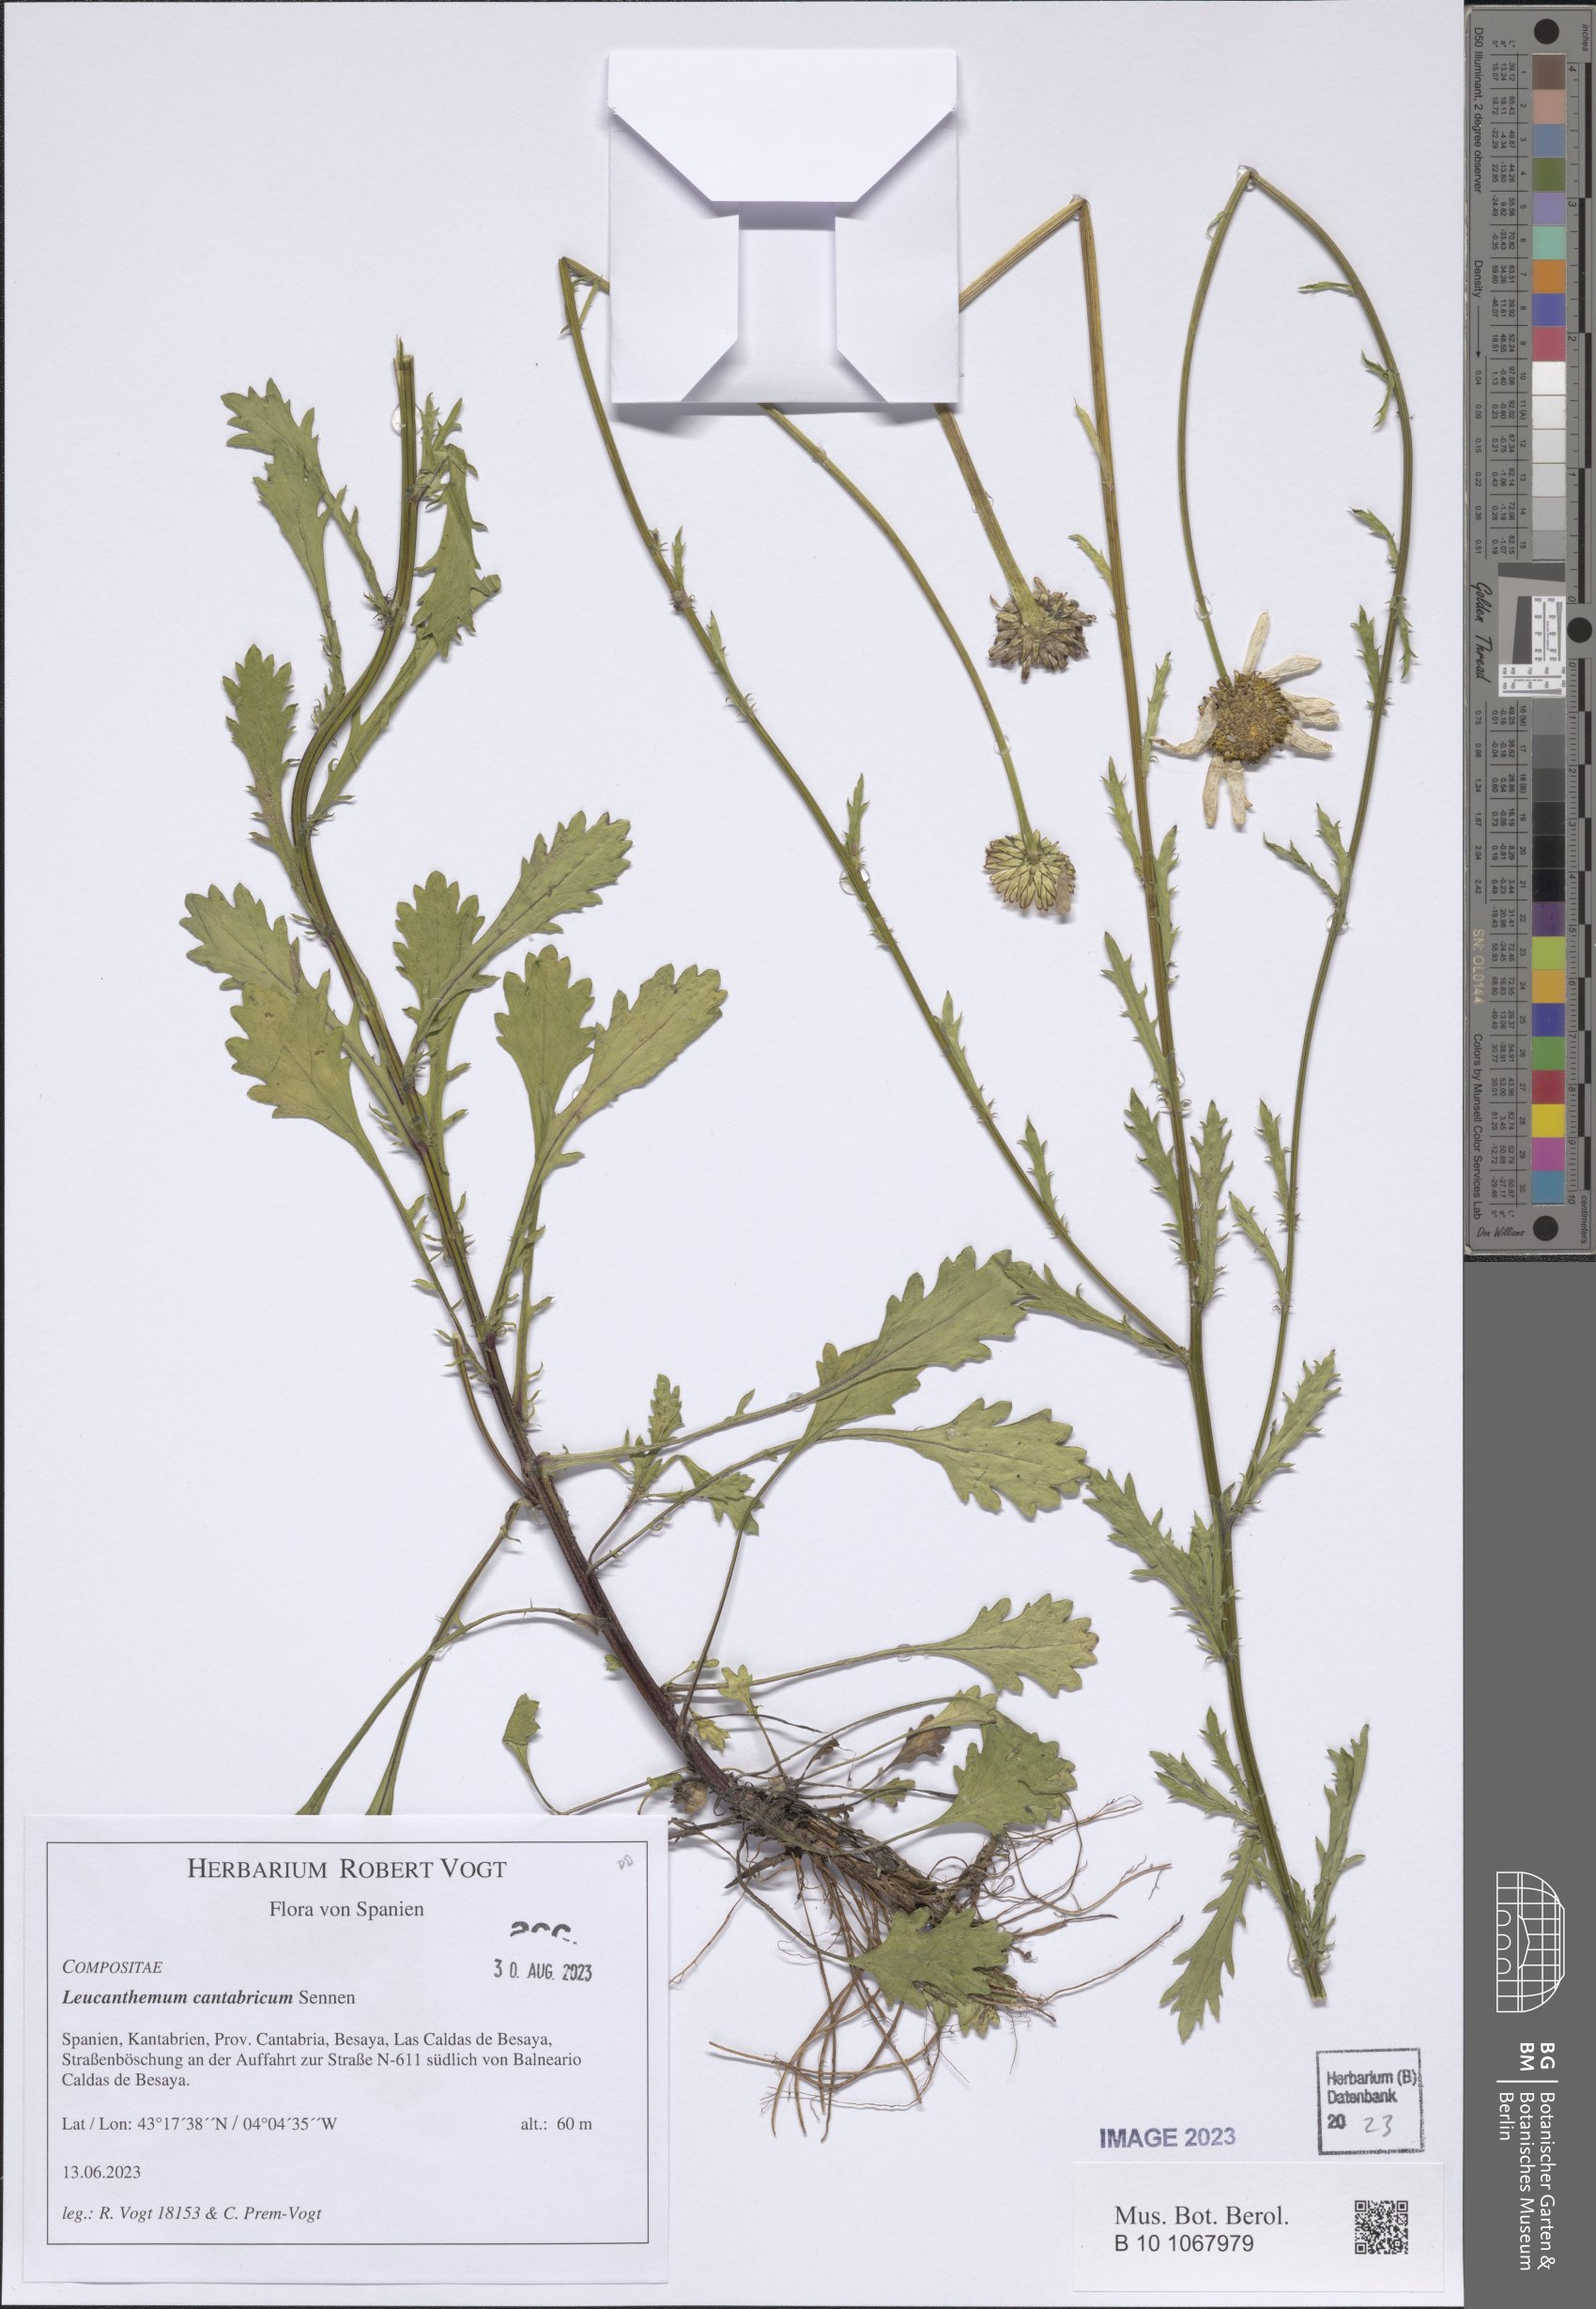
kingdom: Plantae
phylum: Tracheophyta
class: Magnoliopsida
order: Asterales
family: Asteraceae
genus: Leucanthemum
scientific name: Leucanthemum cantabricum
